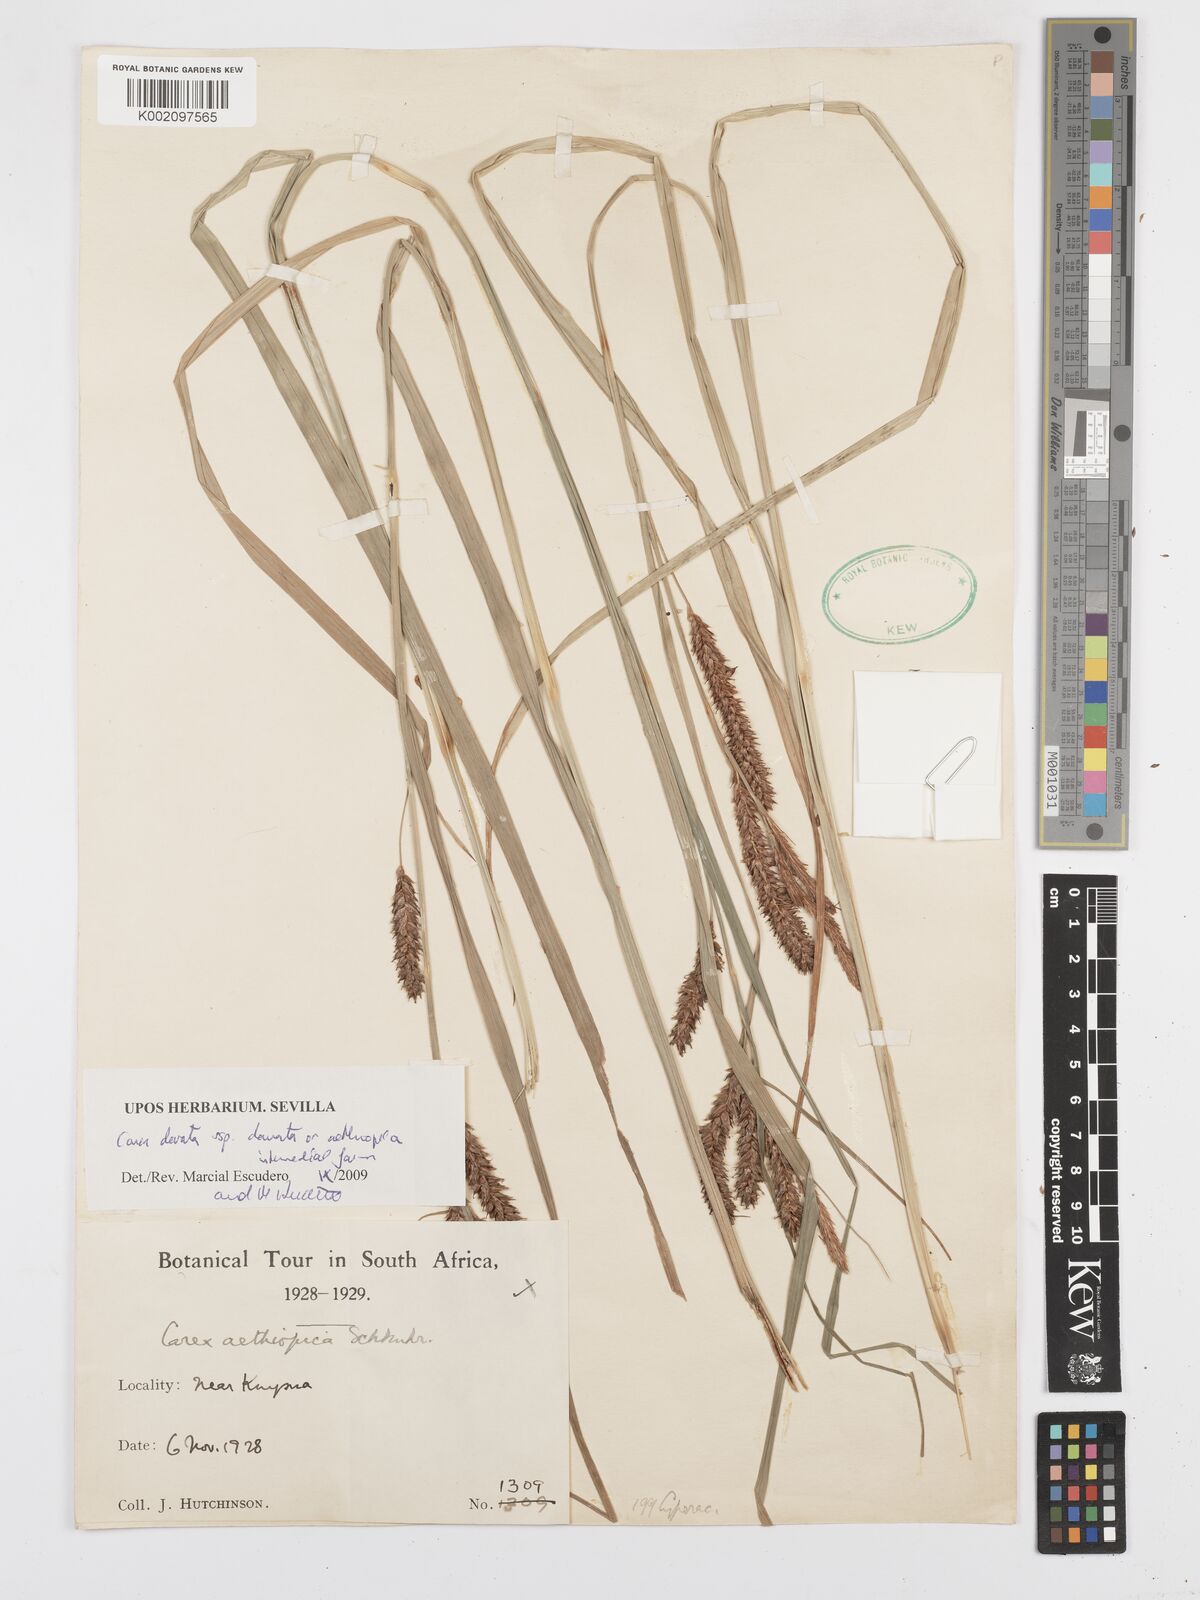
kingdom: Plantae
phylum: Tracheophyta
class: Liliopsida
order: Poales
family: Cyperaceae
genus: Carex
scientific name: Carex aethiopica
